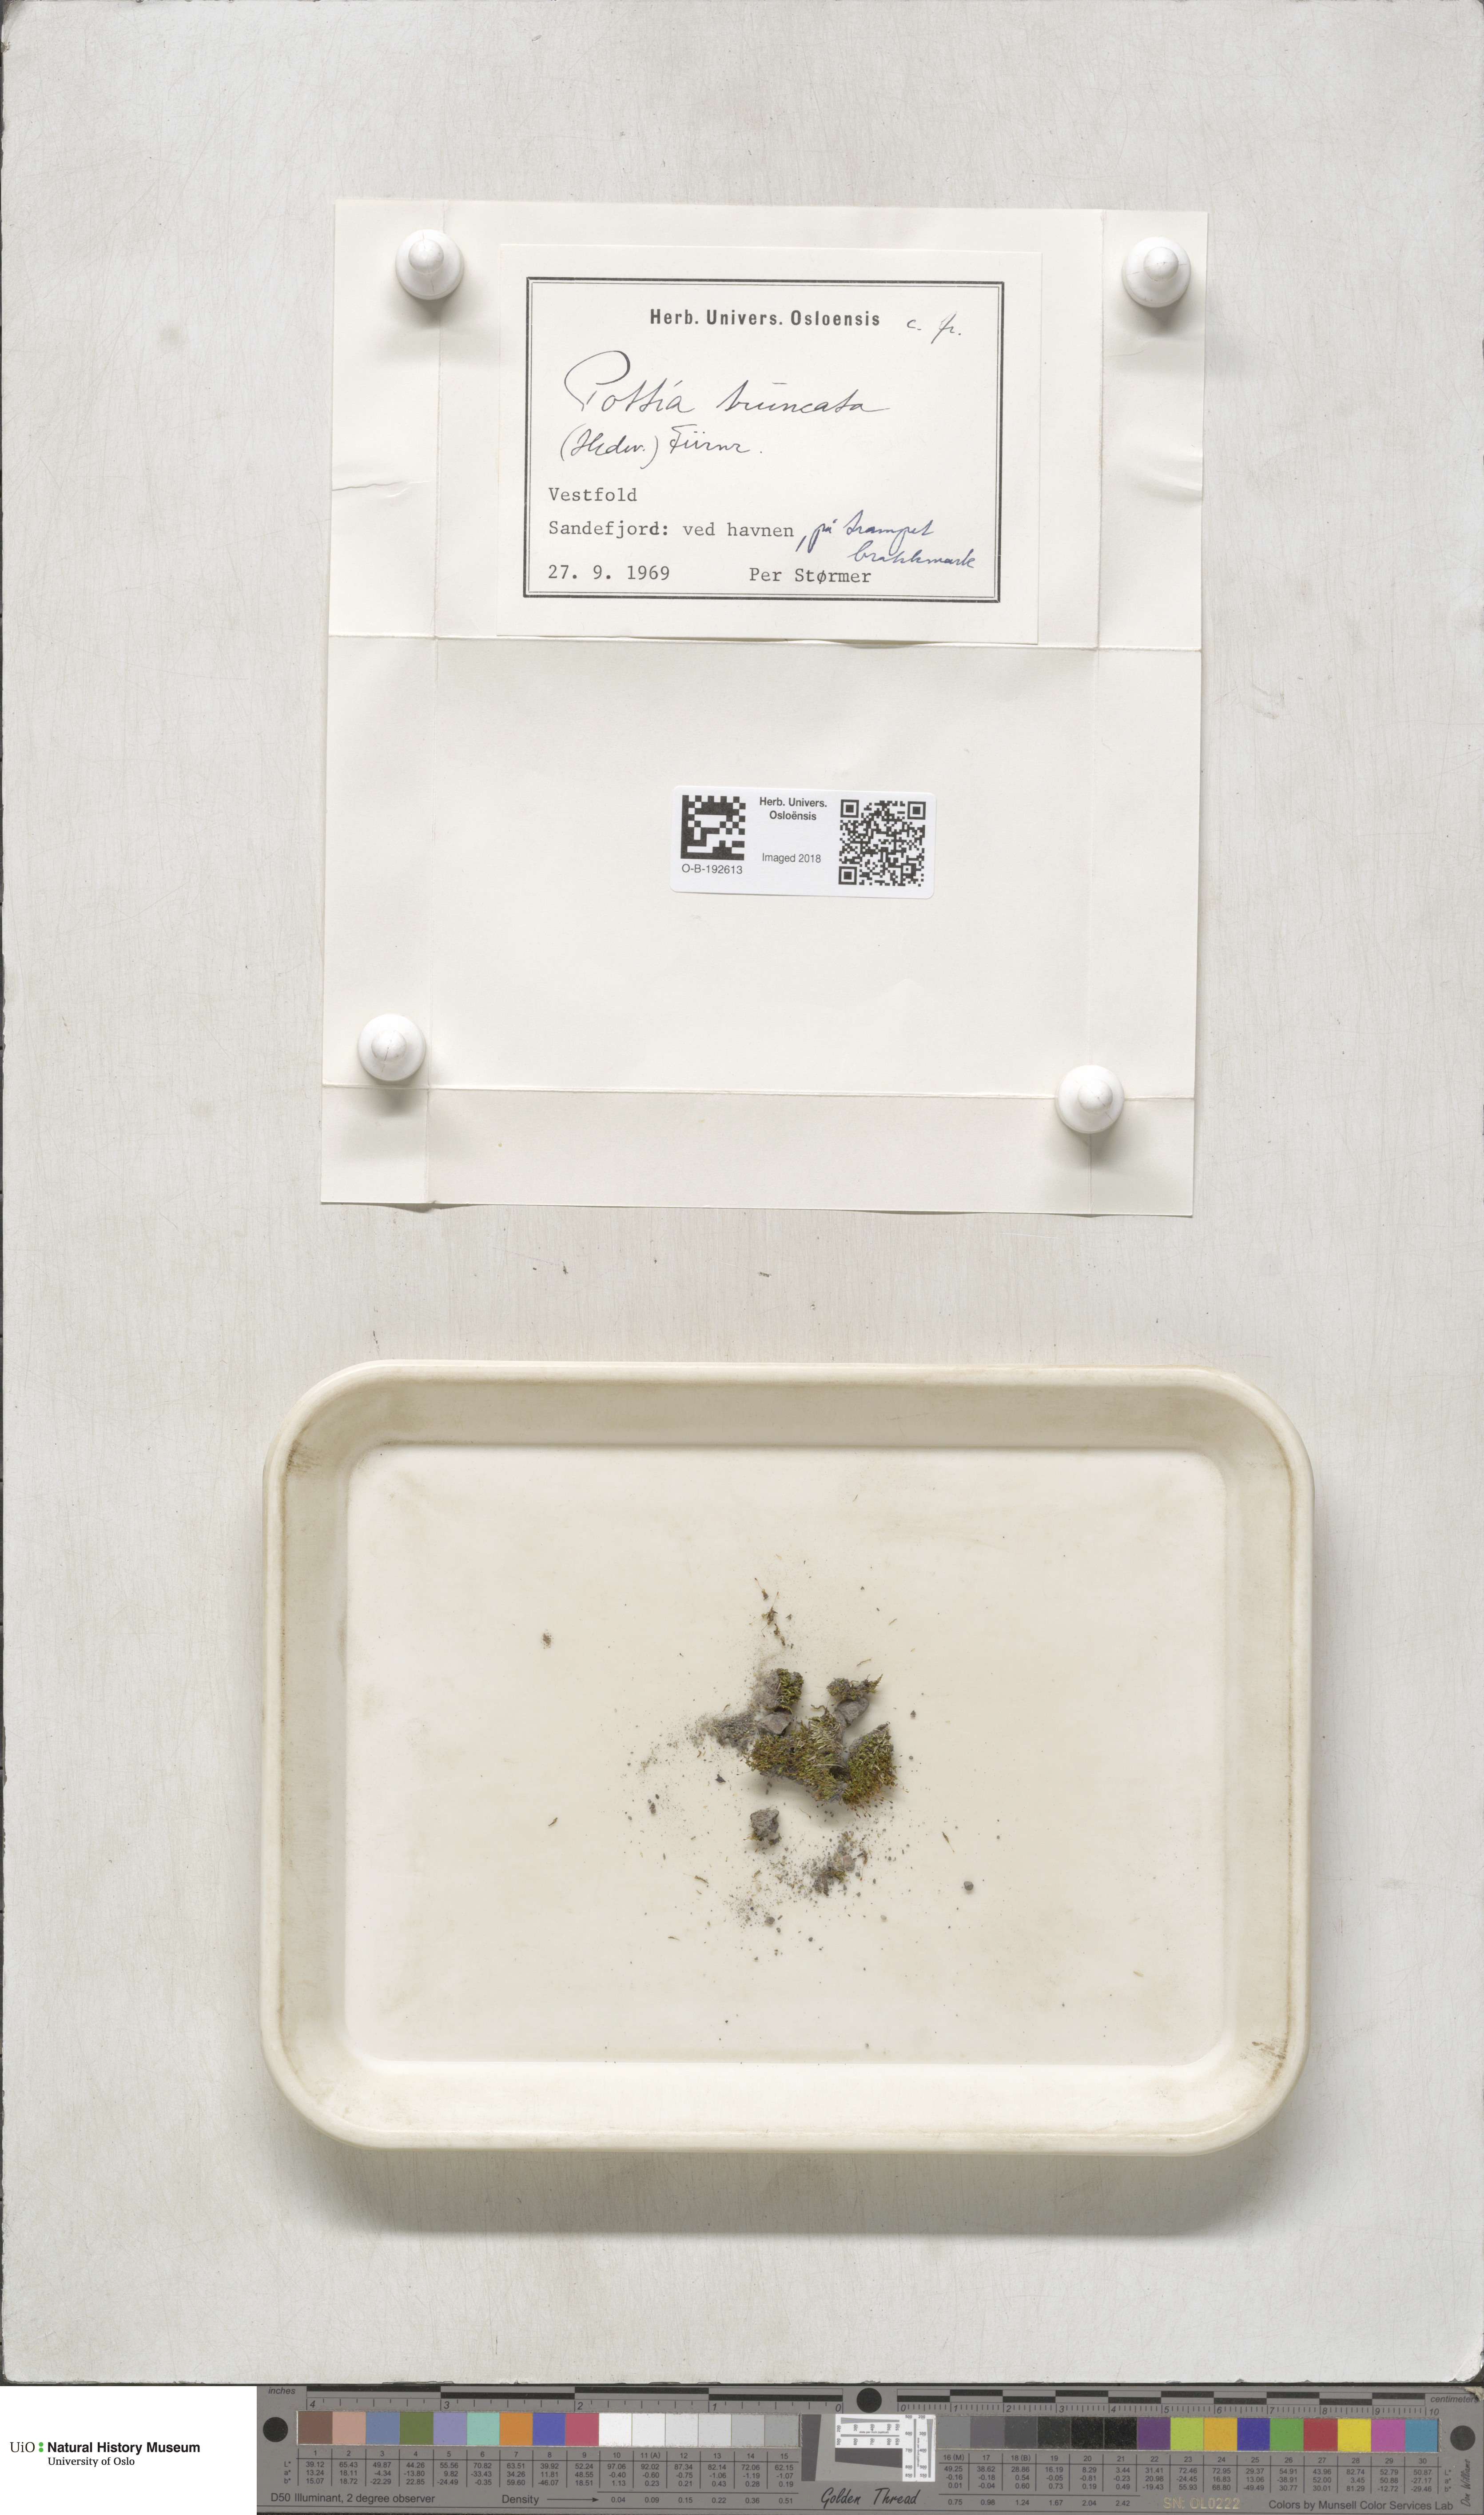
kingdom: Plantae
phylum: Bryophyta
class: Bryopsida
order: Pottiales
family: Pottiaceae
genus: Tortula
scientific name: Tortula truncata
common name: Truncated screw moss
